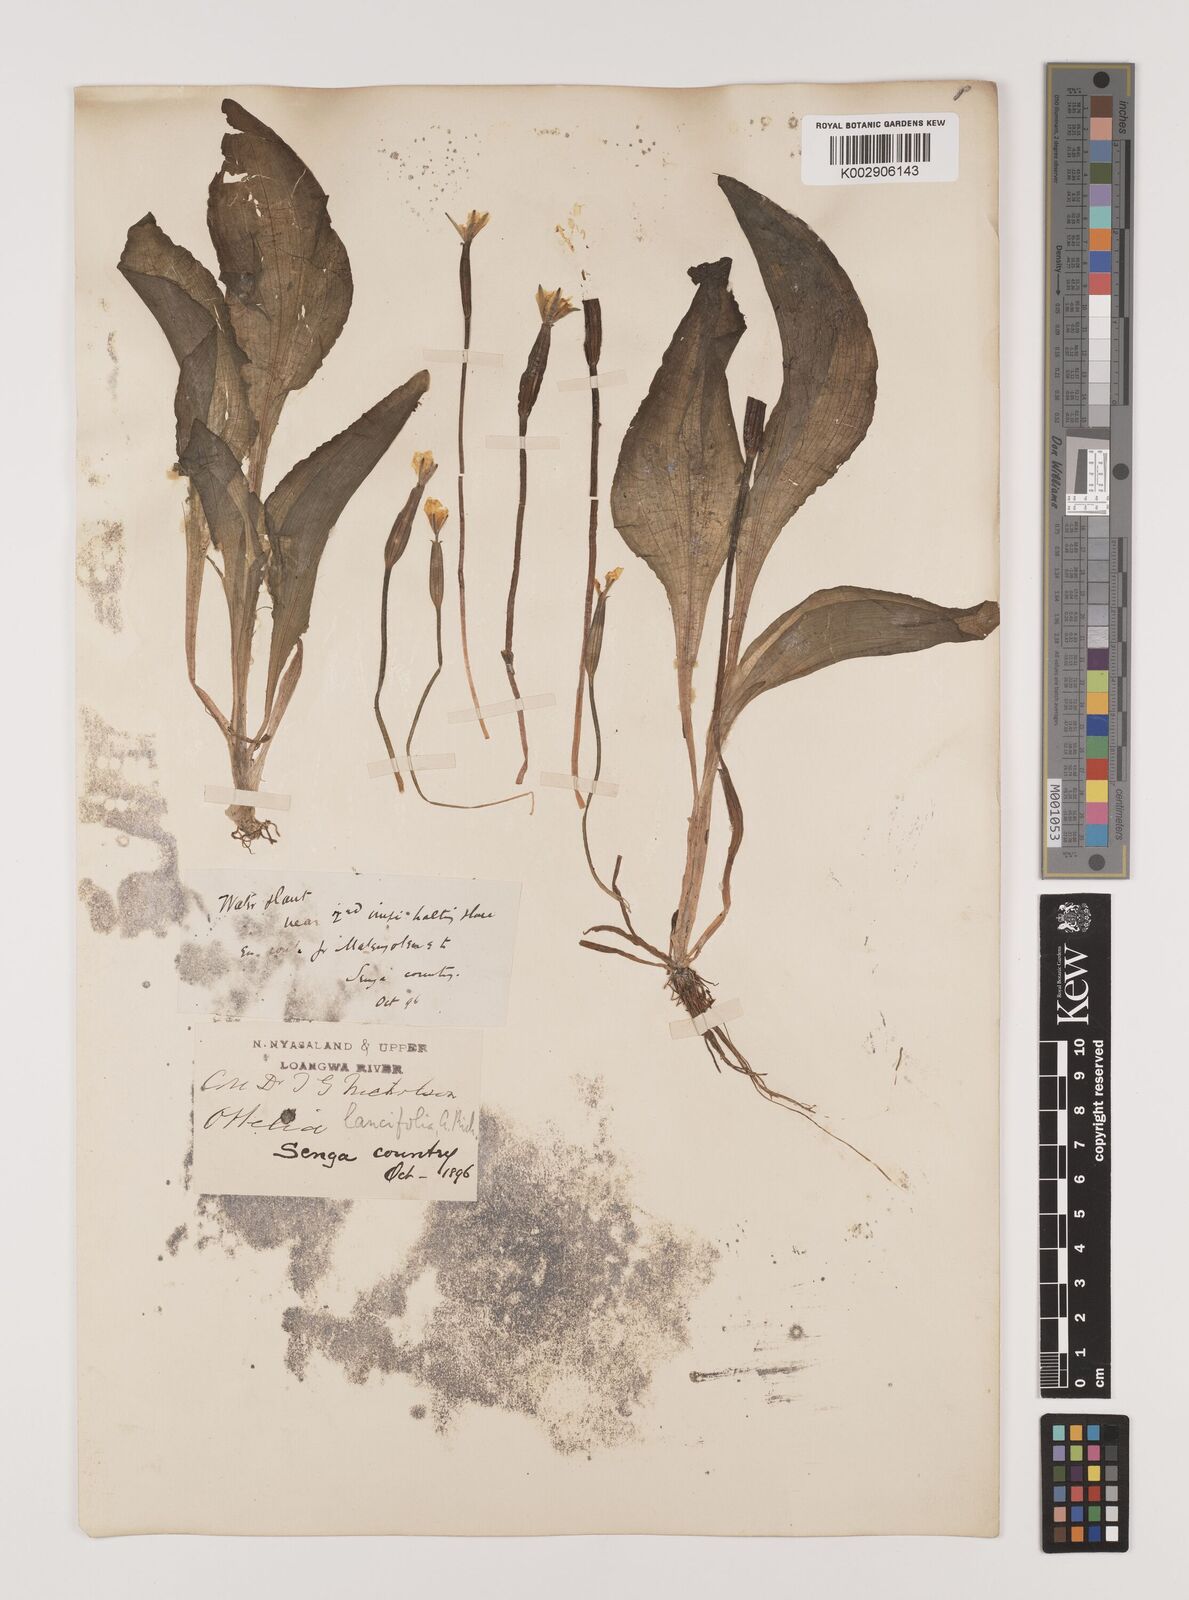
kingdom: Plantae
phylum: Tracheophyta
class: Liliopsida
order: Alismatales
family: Hydrocharitaceae
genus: Ottelia
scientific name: Ottelia ulvifolia
